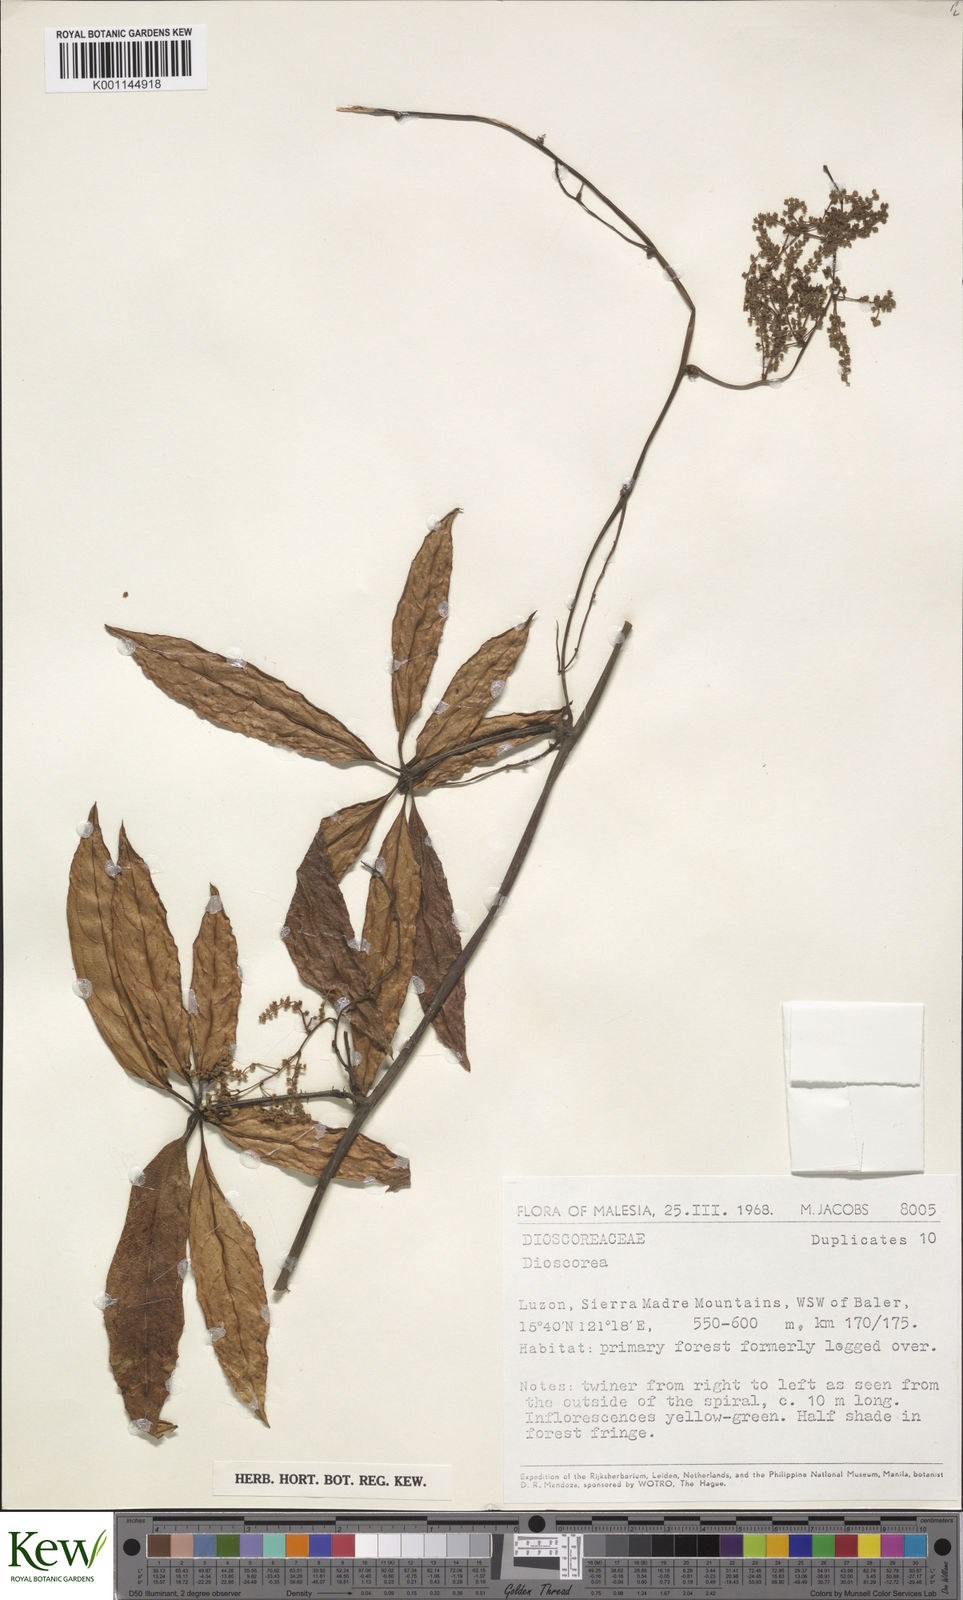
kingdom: Plantae
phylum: Tracheophyta
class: Liliopsida
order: Dioscoreales
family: Dioscoreaceae
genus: Dioscorea
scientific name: Dioscorea
